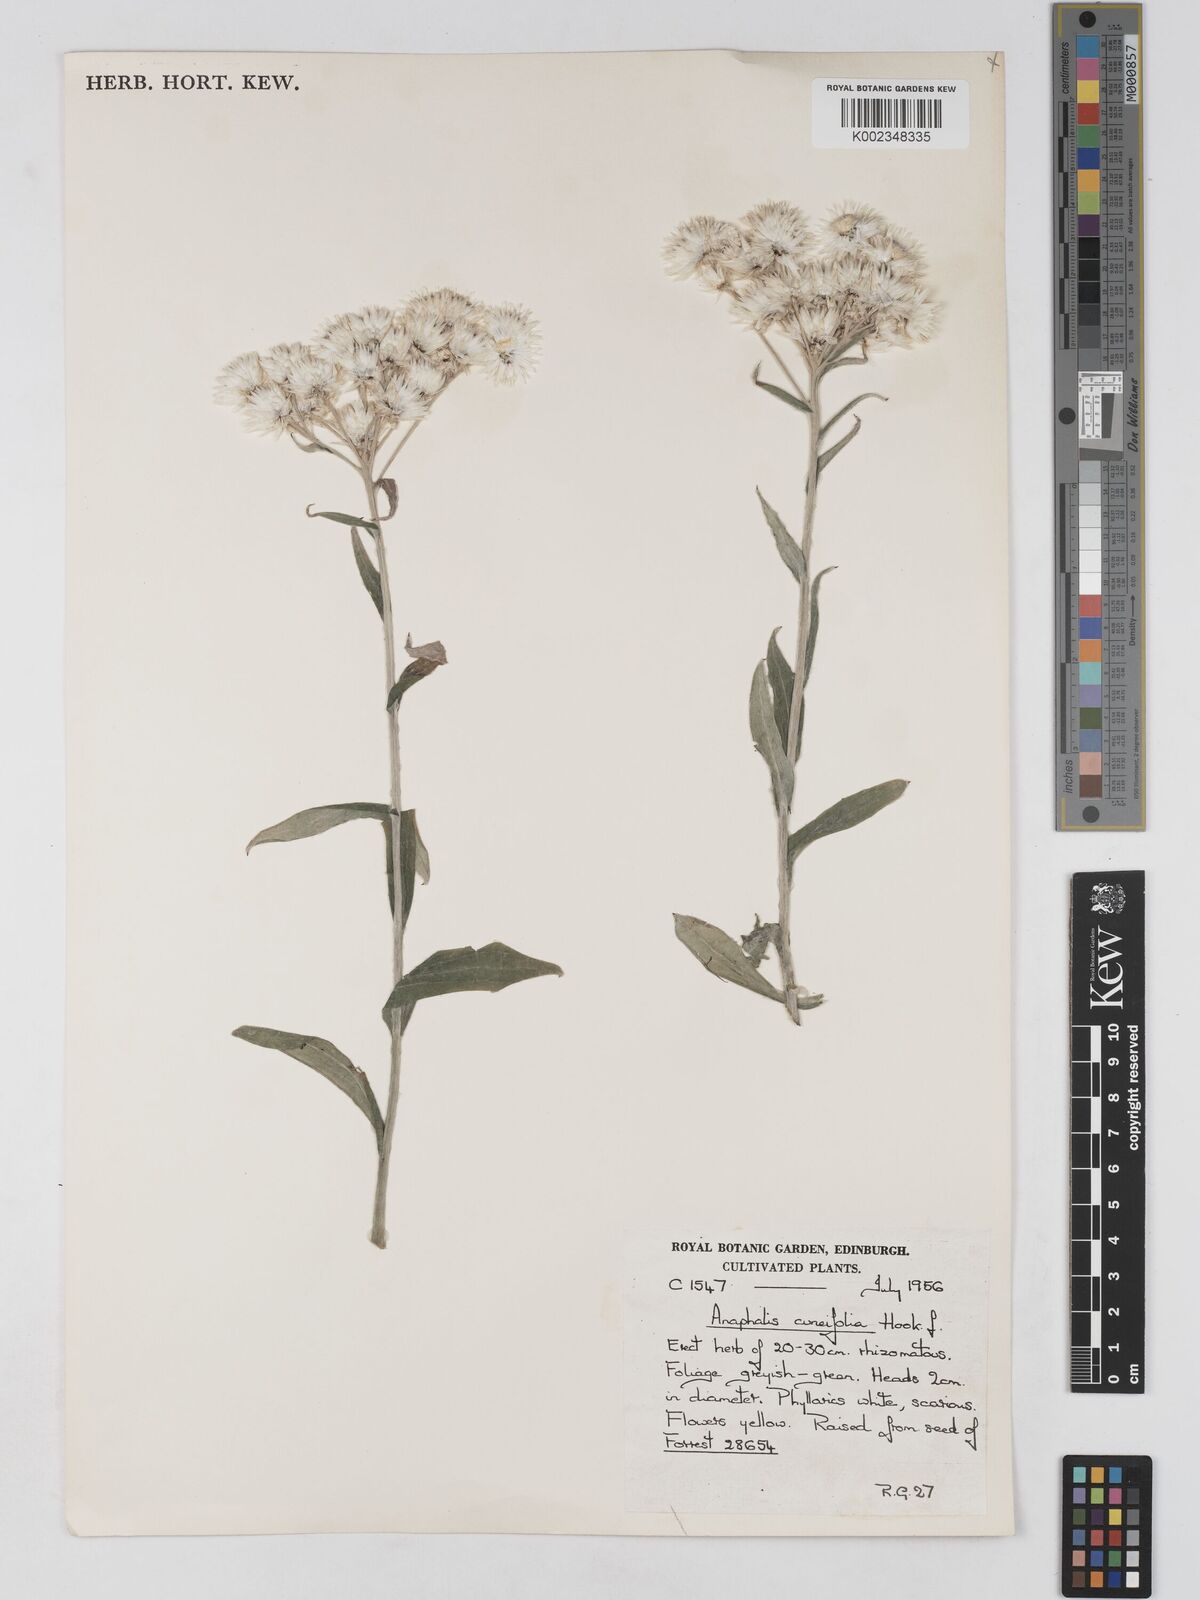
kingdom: Plantae
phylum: Tracheophyta
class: Magnoliopsida
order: Asterales
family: Asteraceae
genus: Anaphalis
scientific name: Anaphalis nepalensis
